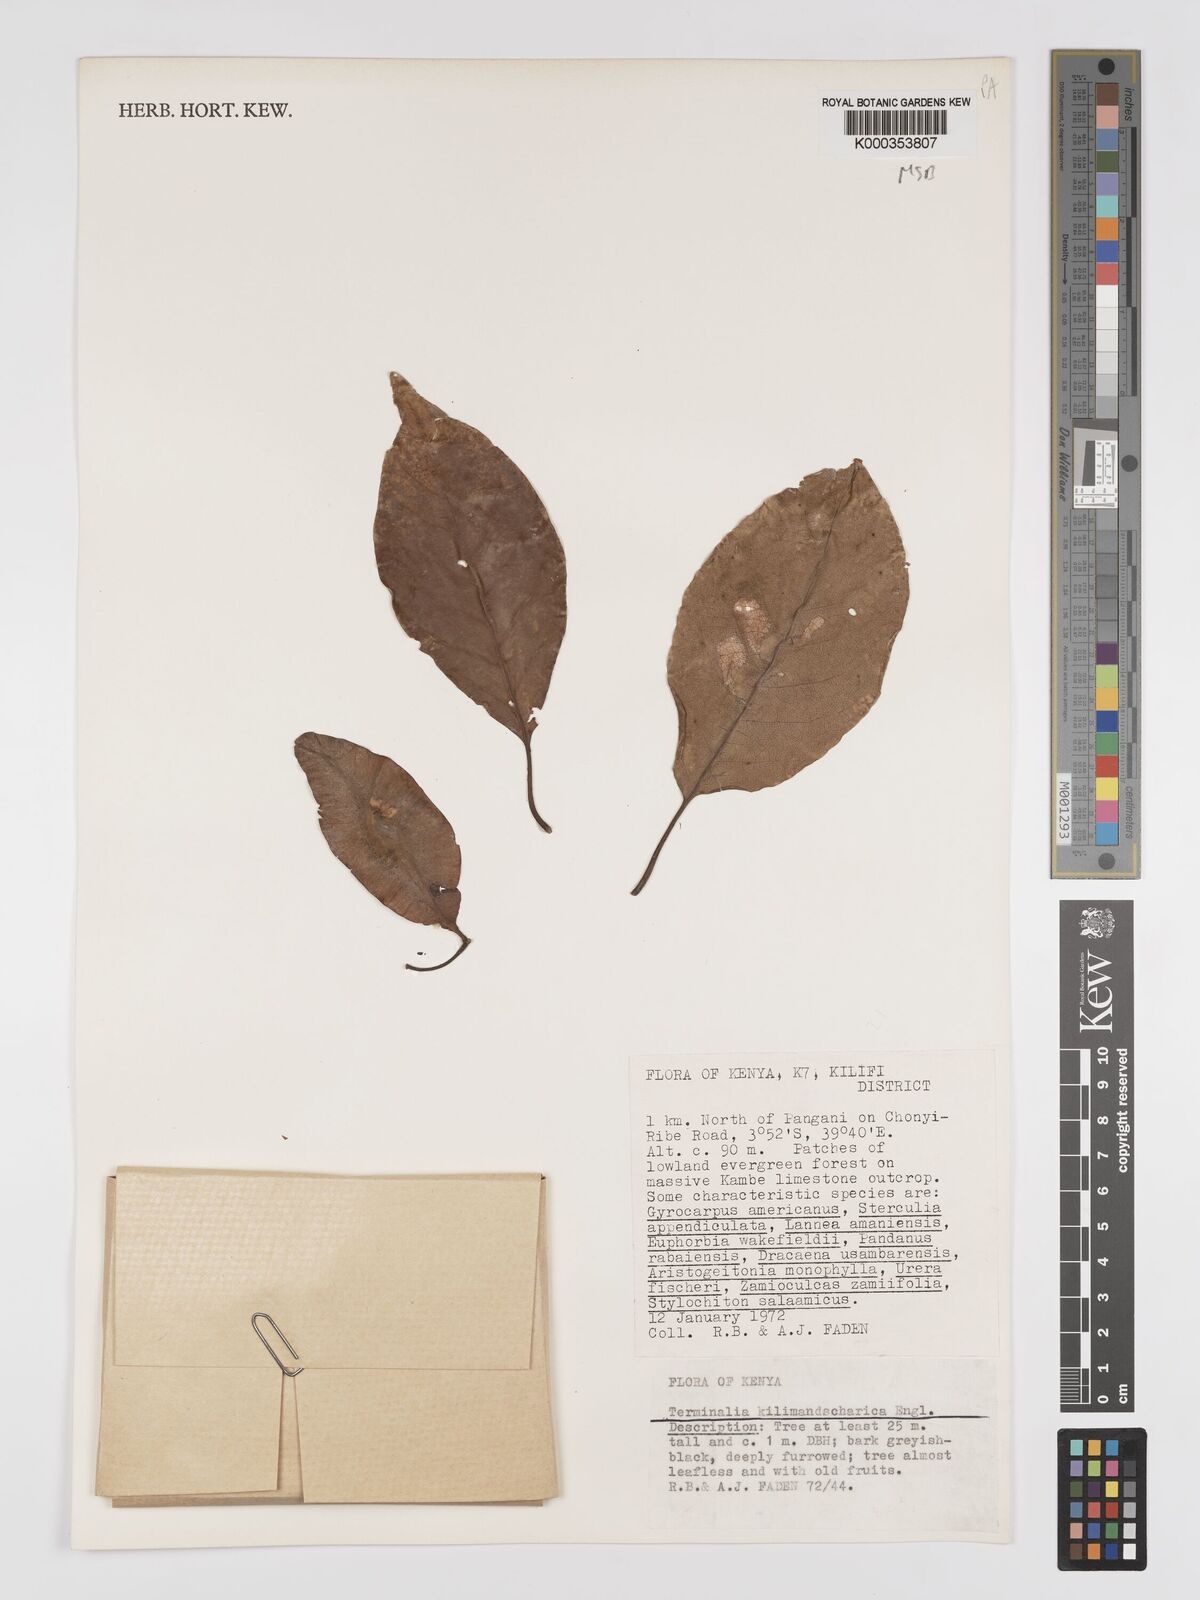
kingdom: Plantae
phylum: Tracheophyta
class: Magnoliopsida
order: Myrtales
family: Combretaceae
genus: Terminalia
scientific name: Terminalia kilimandscharica
